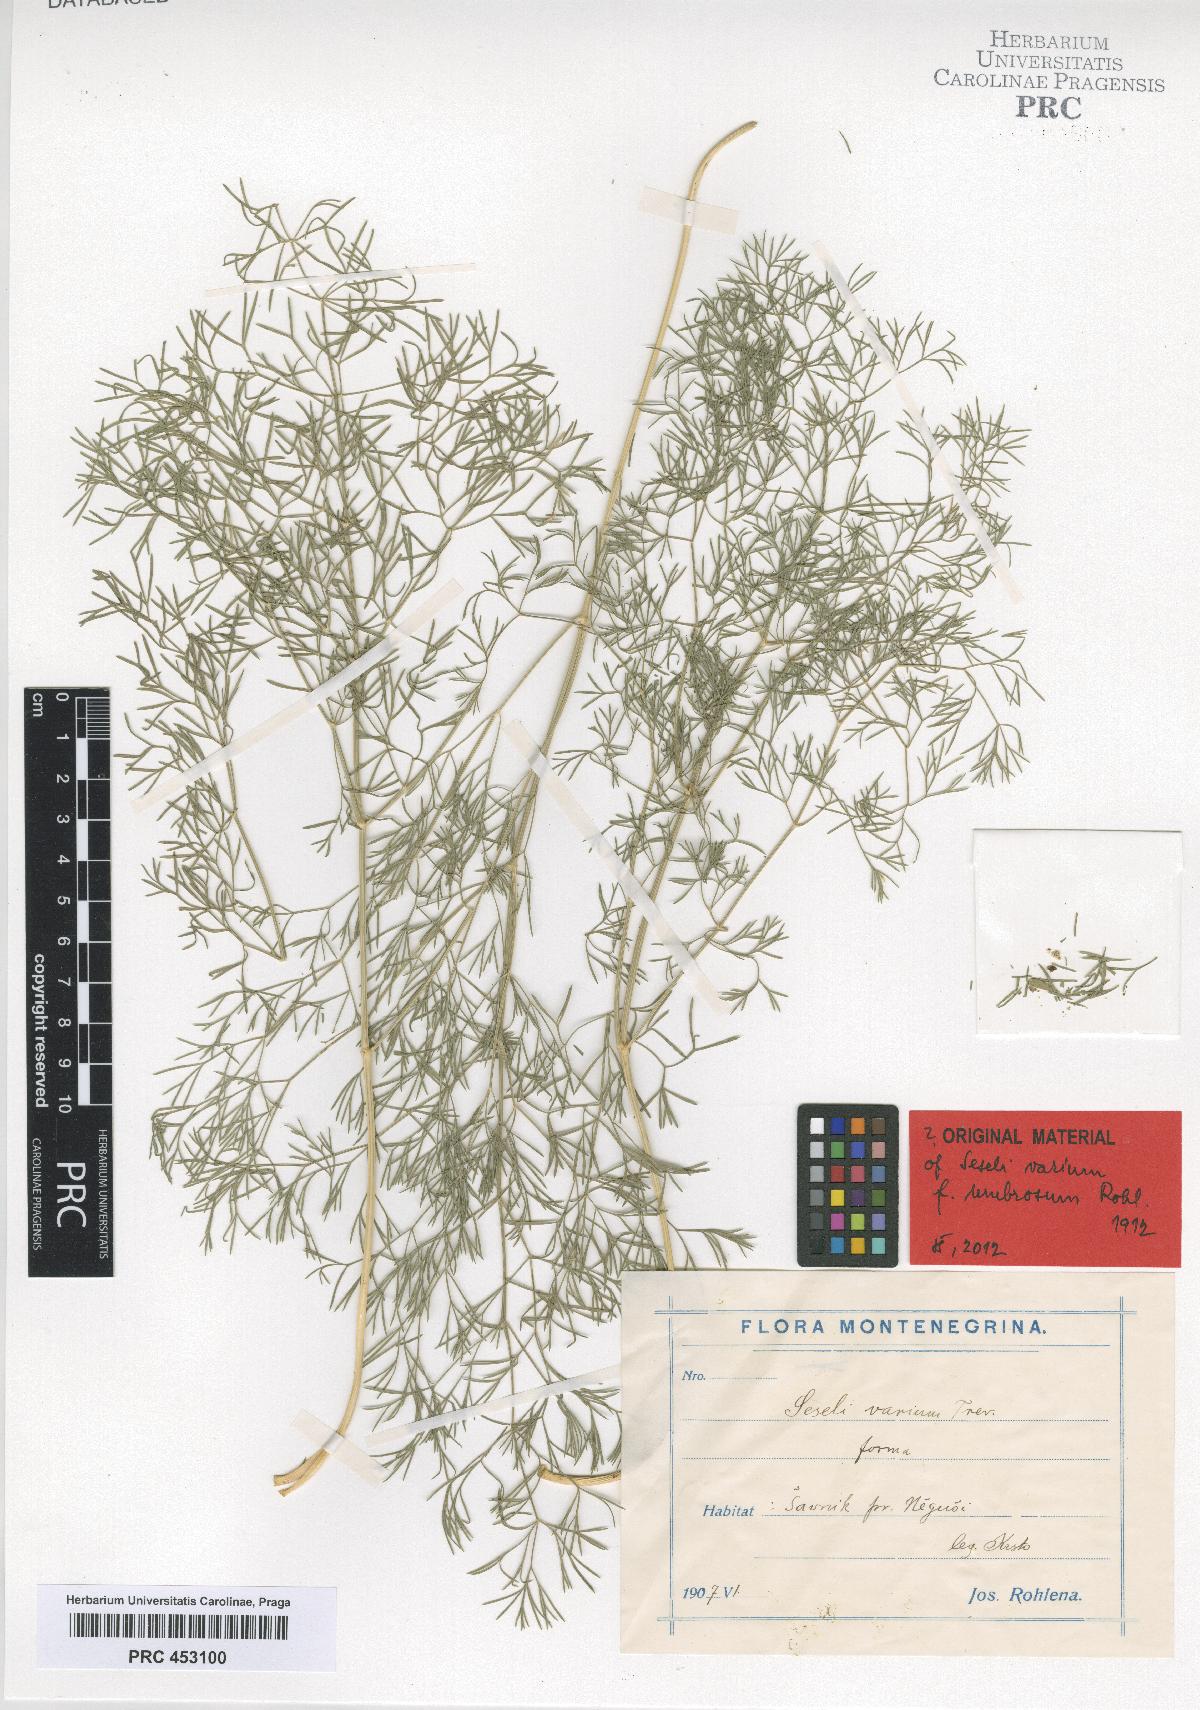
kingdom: Plantae
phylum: Tracheophyta
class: Magnoliopsida
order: Apiales
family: Apiaceae
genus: Seseli
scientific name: Seseli pallasii
